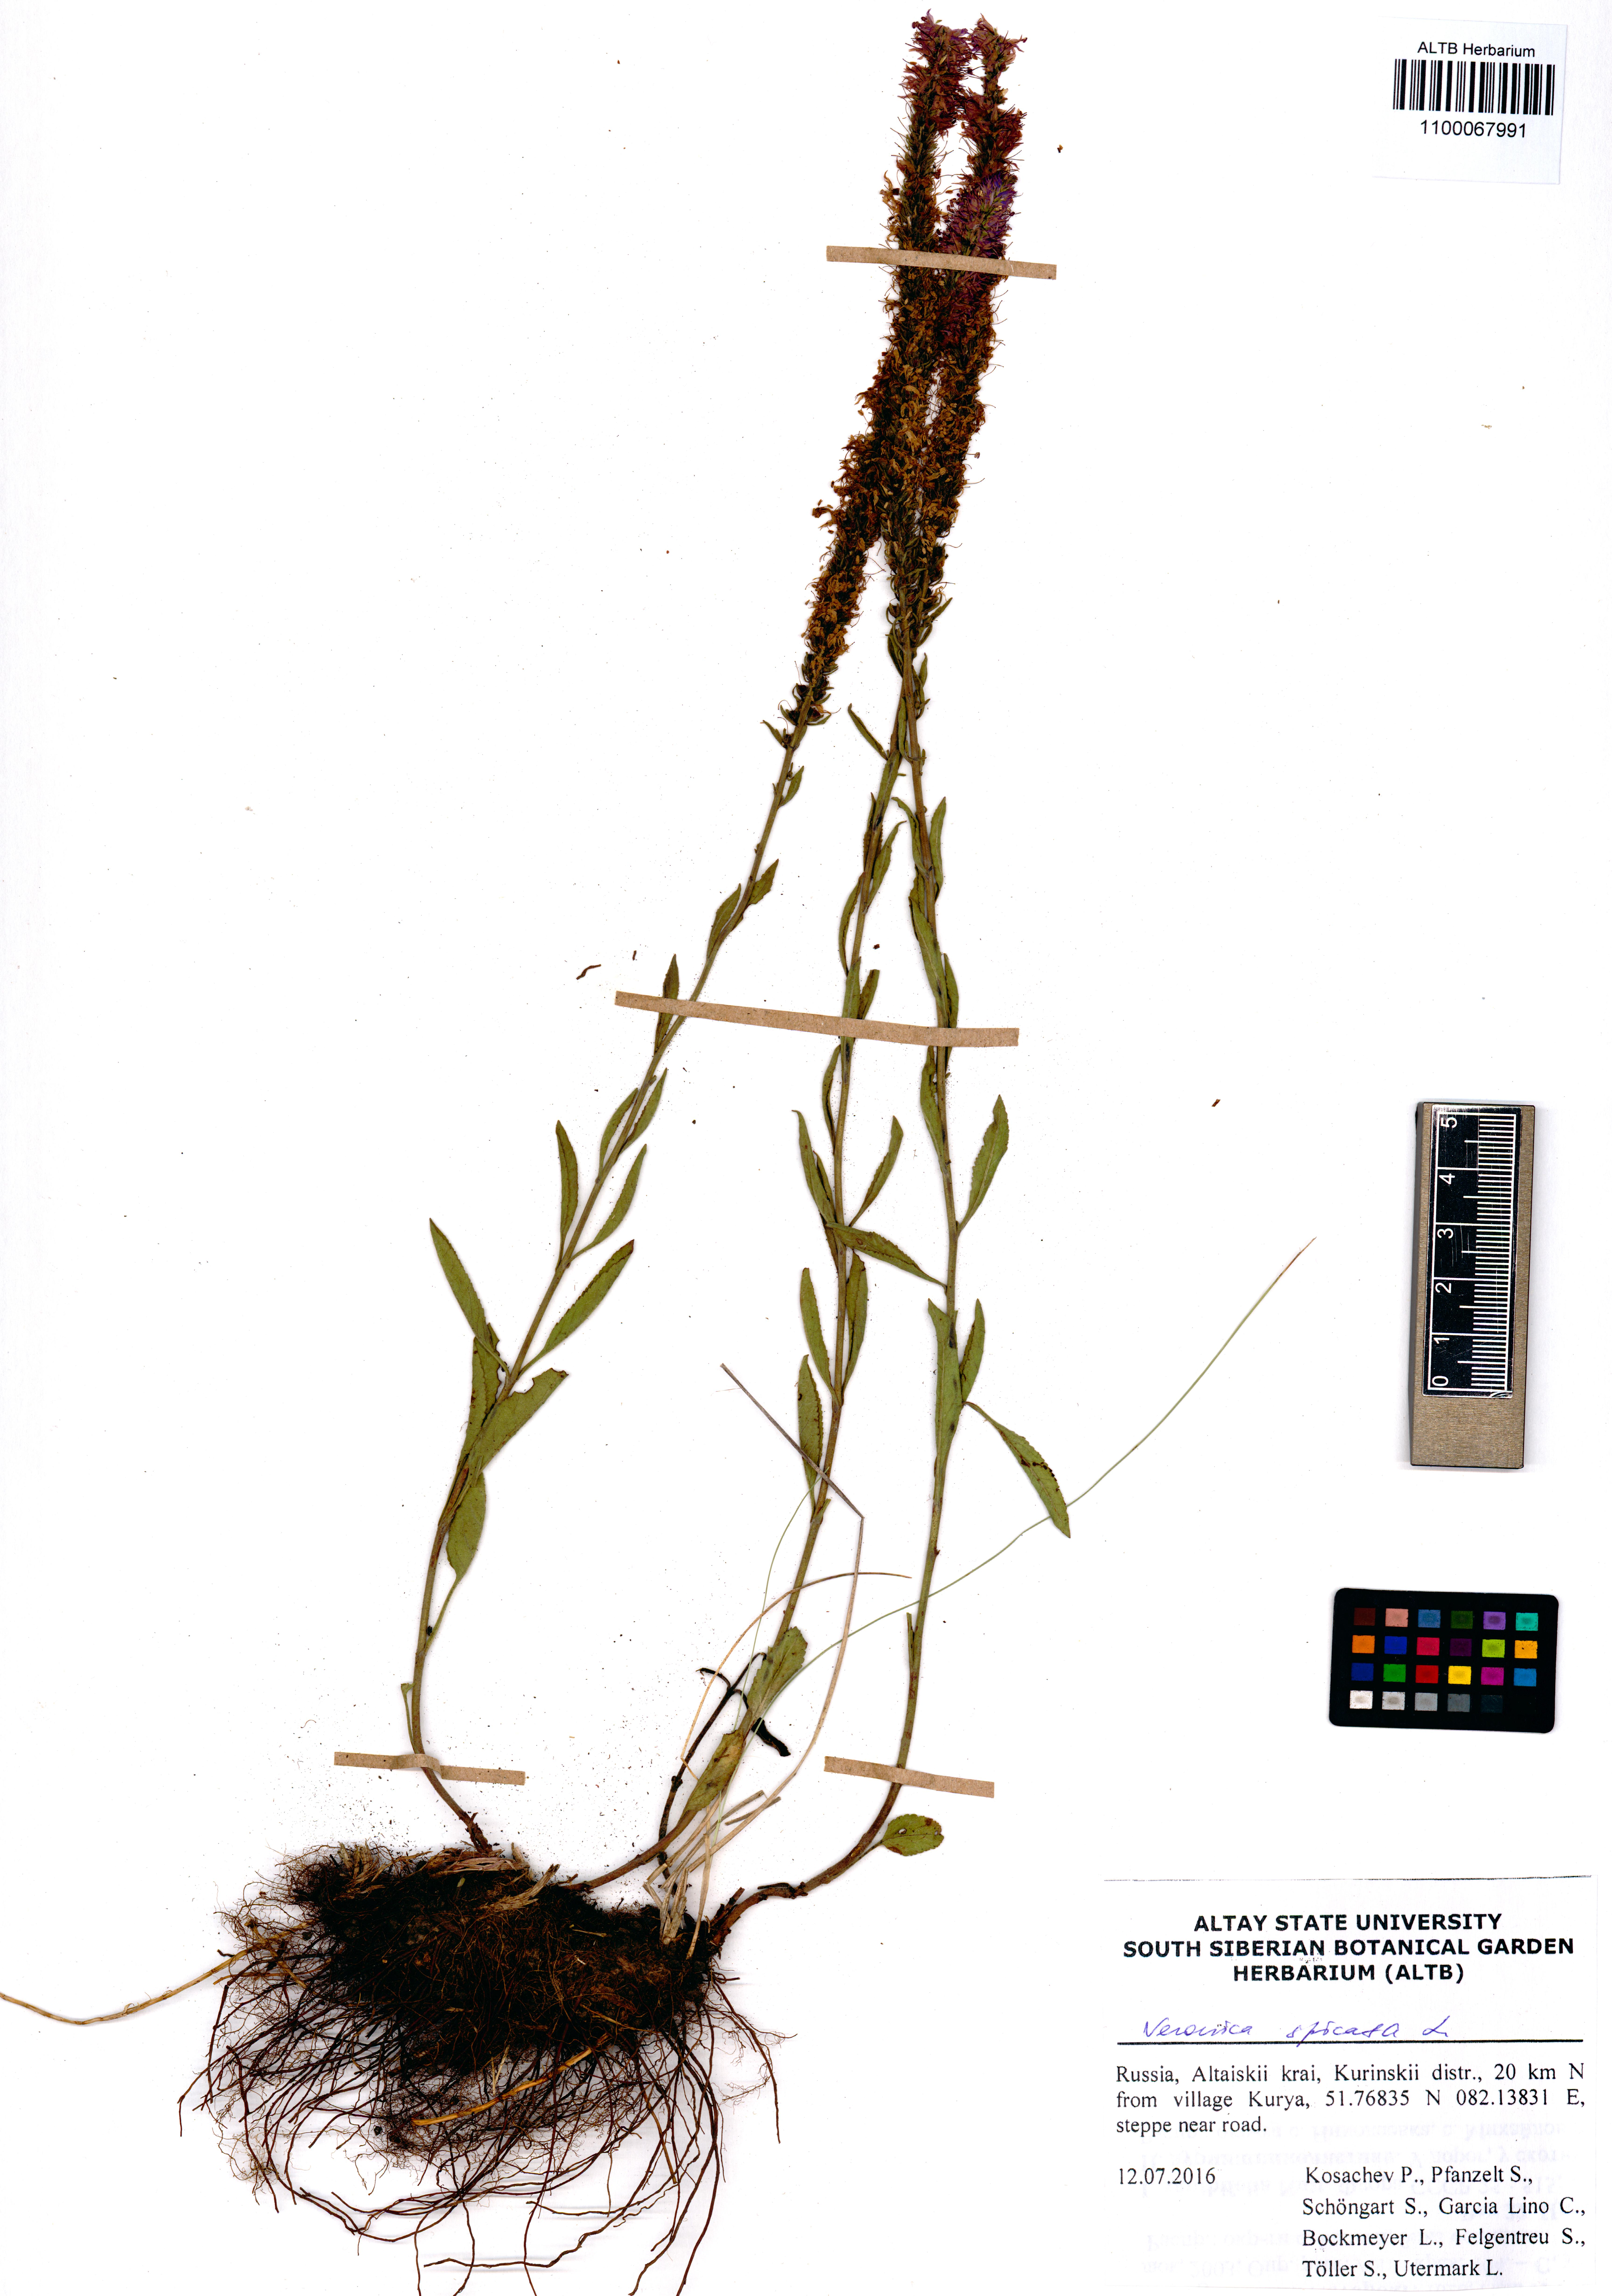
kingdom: Plantae
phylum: Tracheophyta
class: Magnoliopsida
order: Lamiales
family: Plantaginaceae
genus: Veronica
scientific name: Veronica spicata
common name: Spiked speedwell
